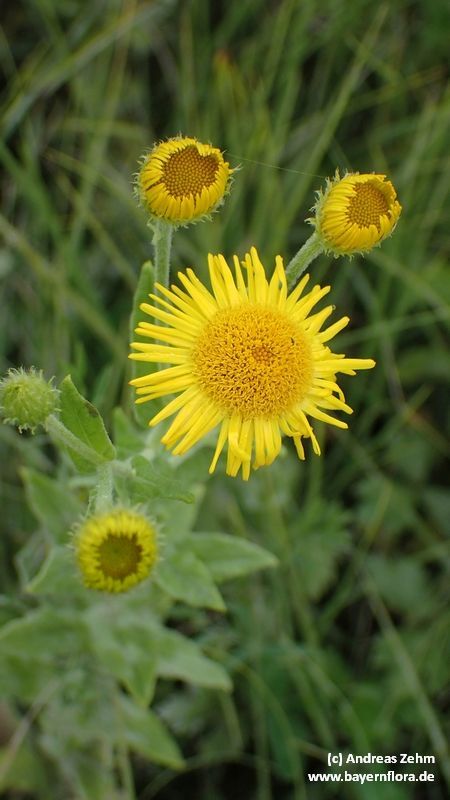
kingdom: Plantae
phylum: Tracheophyta
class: Magnoliopsida
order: Asterales
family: Asteraceae
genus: Pulicaria
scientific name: Pulicaria dysenterica
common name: Common fleabane
